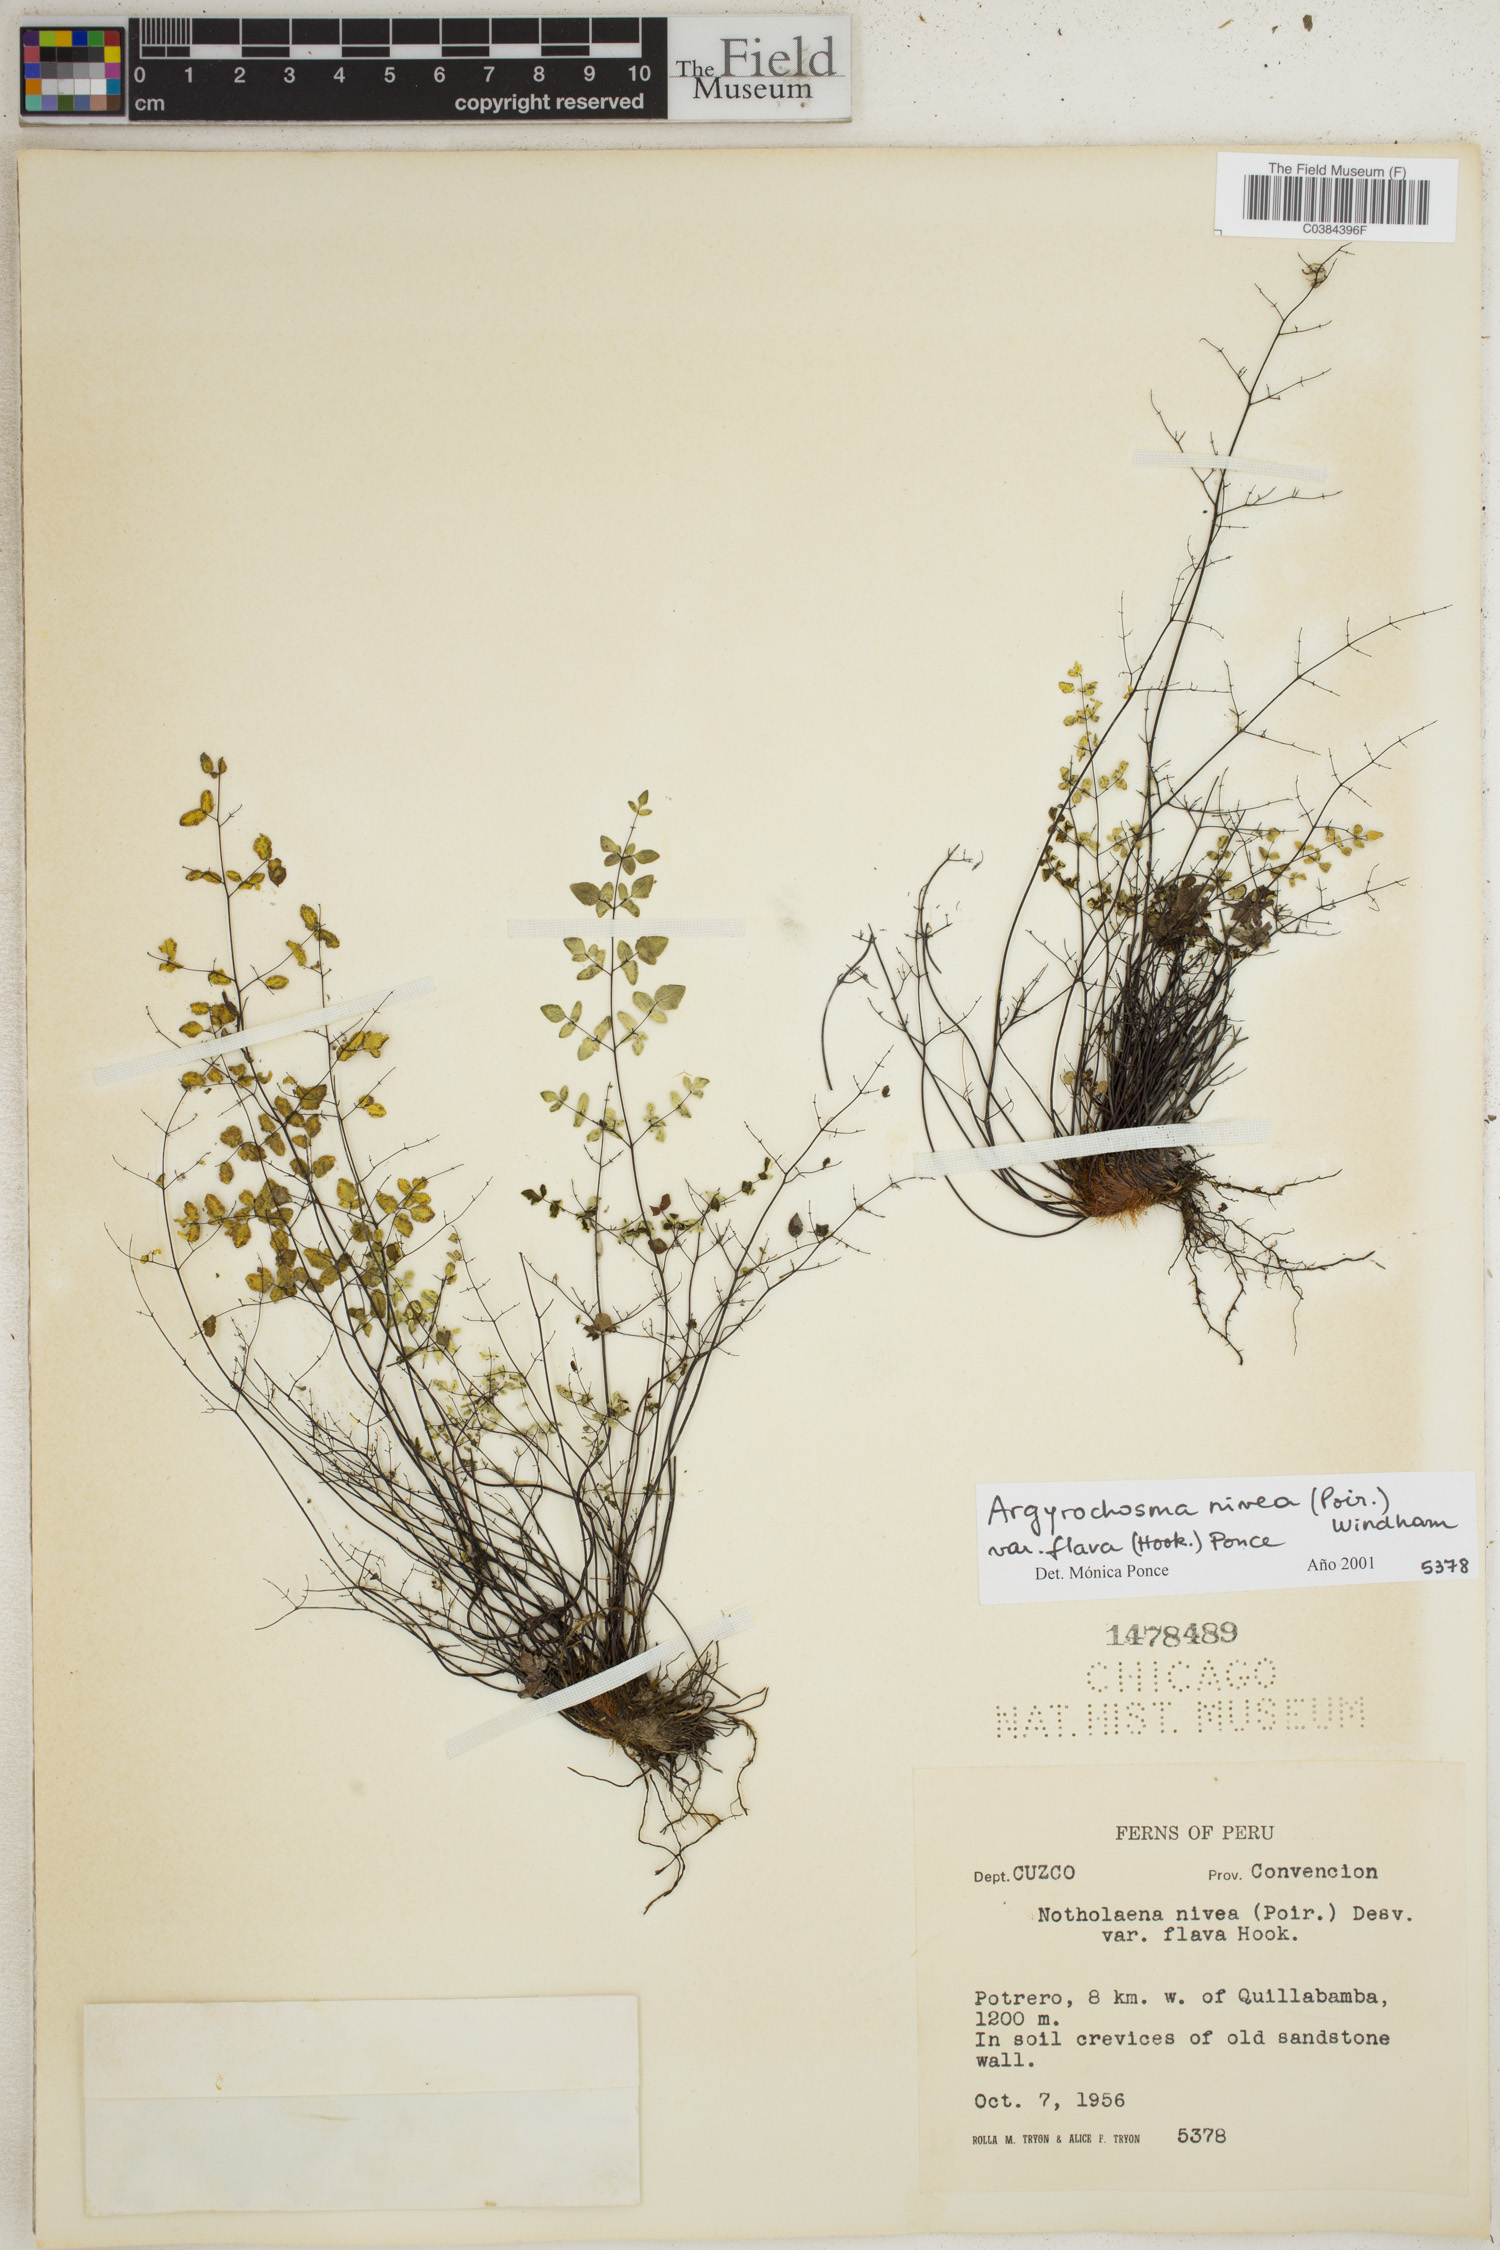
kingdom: Plantae
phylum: Tracheophyta
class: Polypodiopsida
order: Polypodiales
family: Pteridaceae
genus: Argyrochosma
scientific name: Argyrochosma nivea
